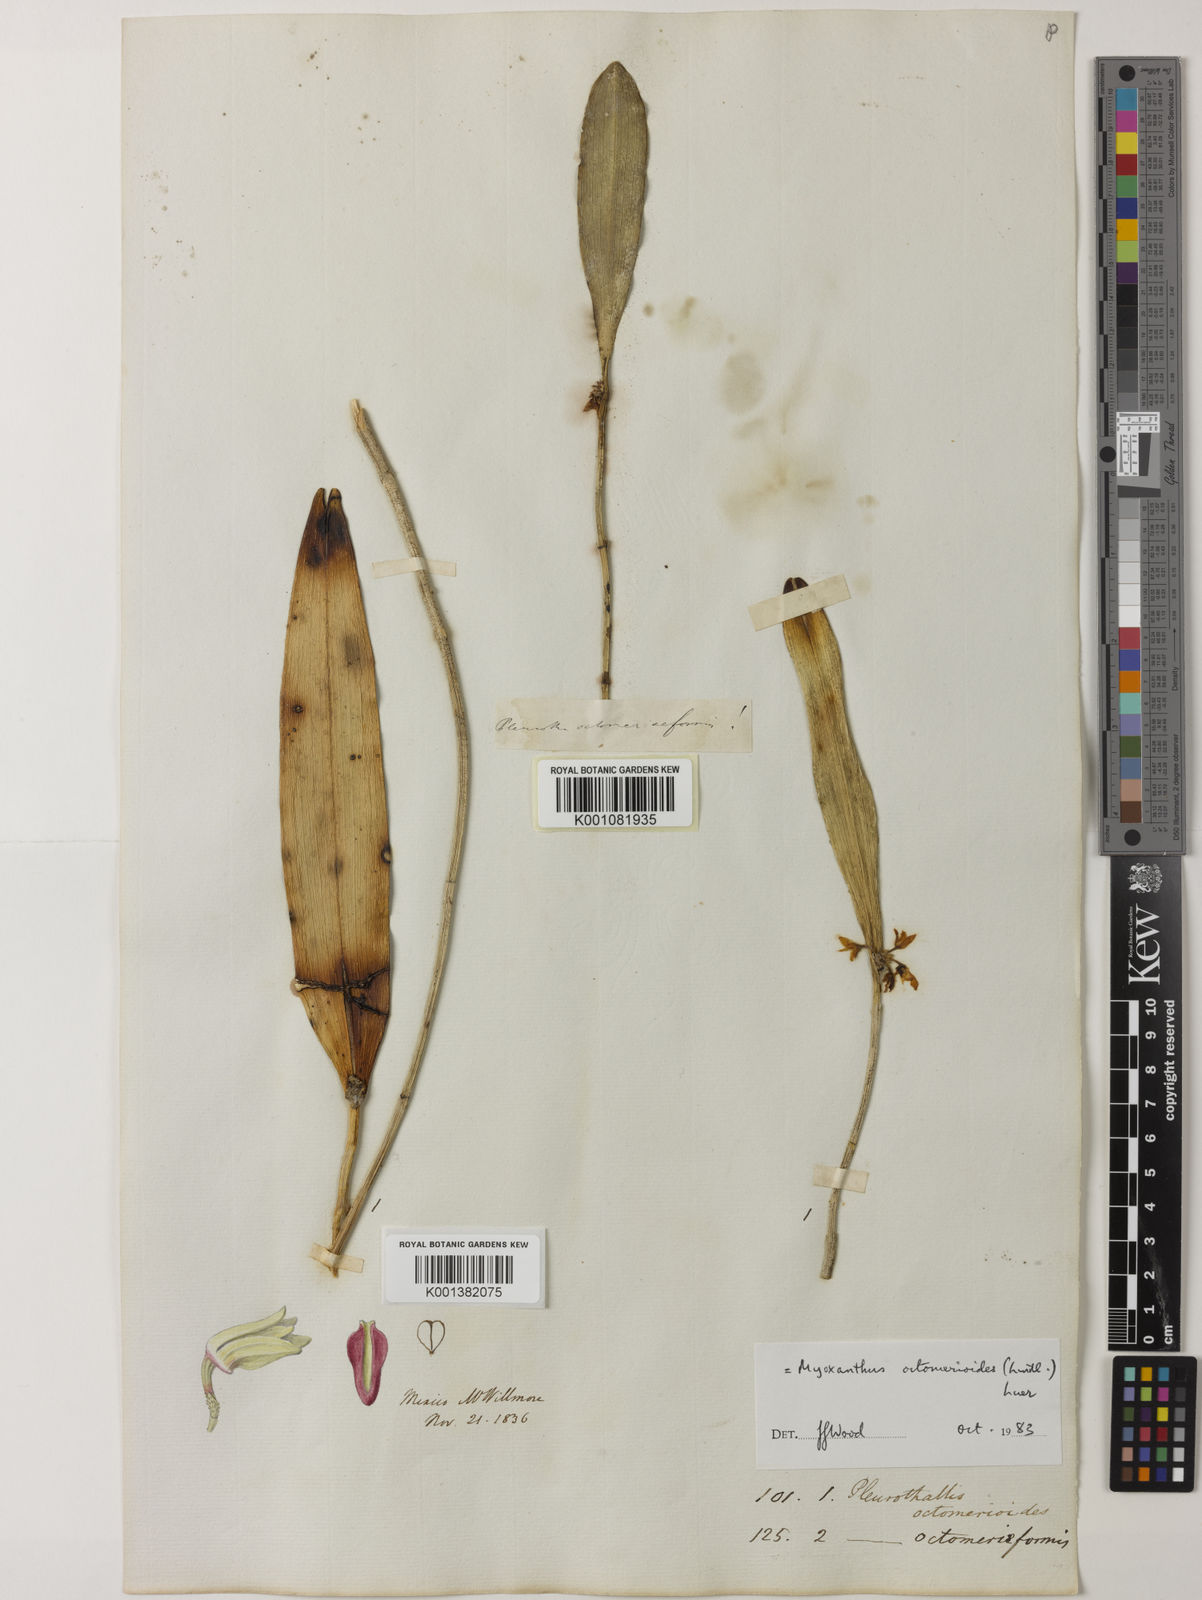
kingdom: Plantae
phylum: Tracheophyta
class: Liliopsida
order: Asparagales
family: Orchidaceae
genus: Myoxanthus
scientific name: Myoxanthus octomerioides
